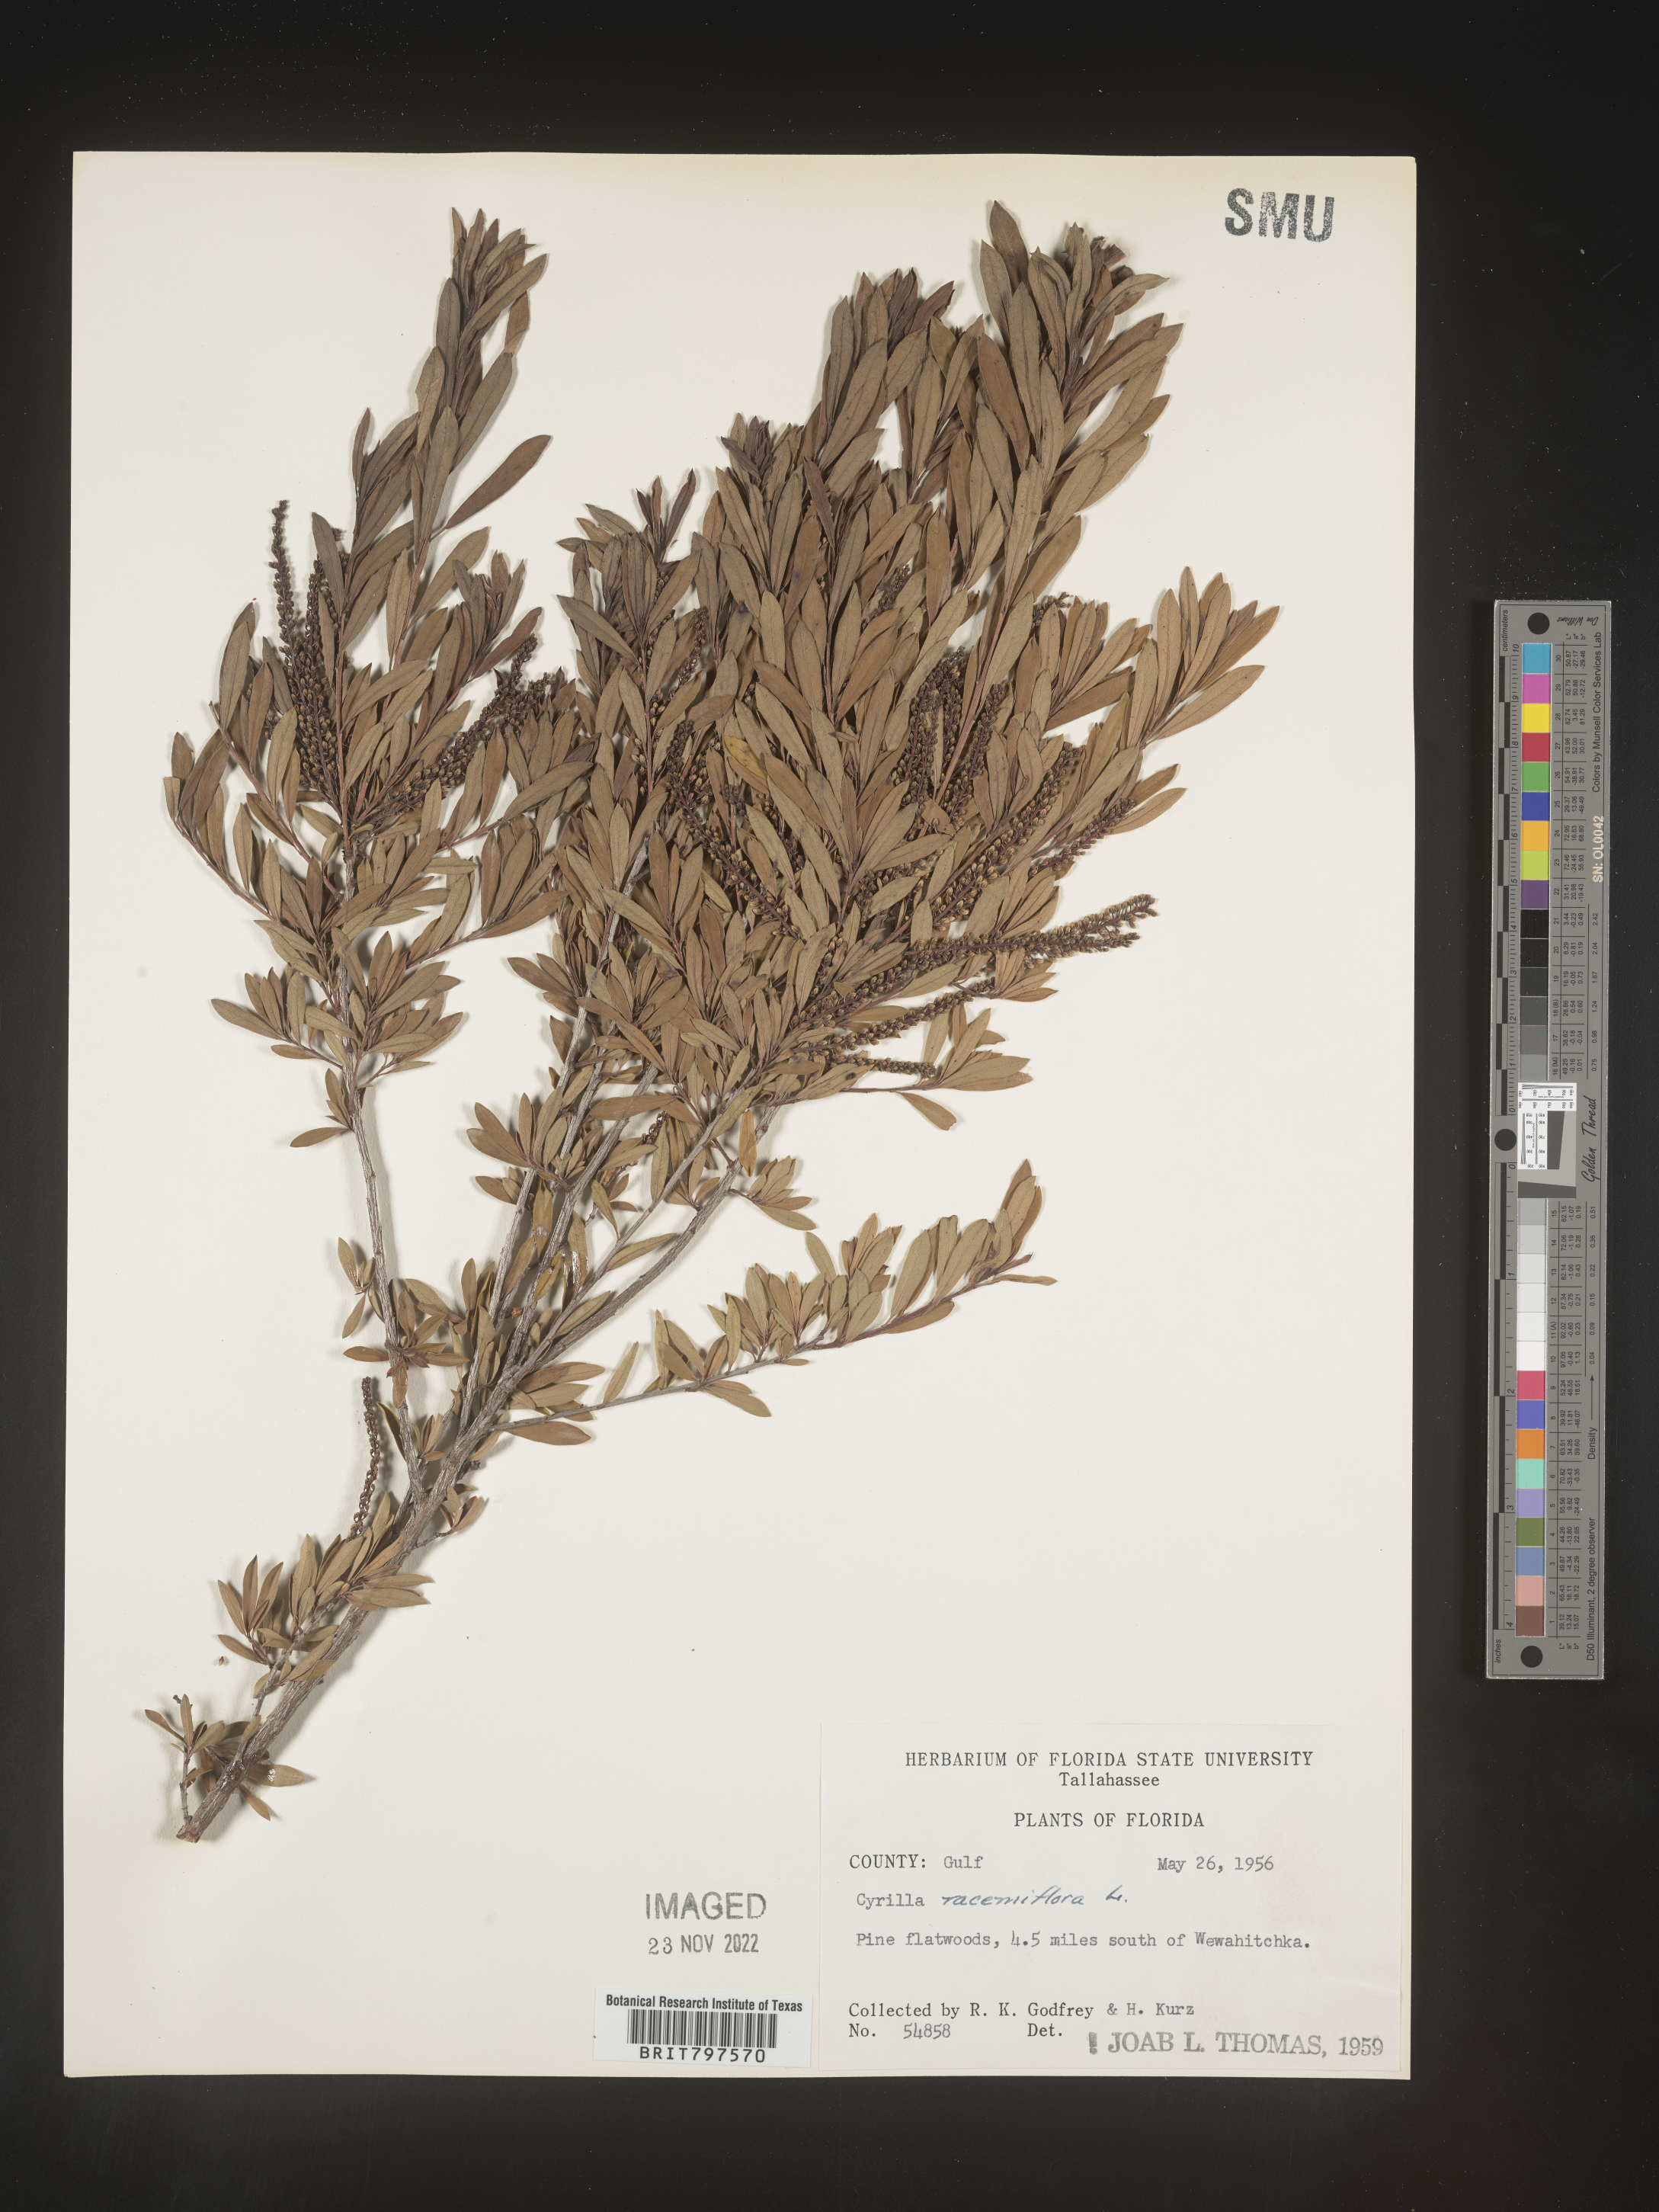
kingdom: Plantae
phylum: Tracheophyta
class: Magnoliopsida
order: Ericales
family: Cyrillaceae
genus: Cyrilla
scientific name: Cyrilla racemiflora
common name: Black titi
